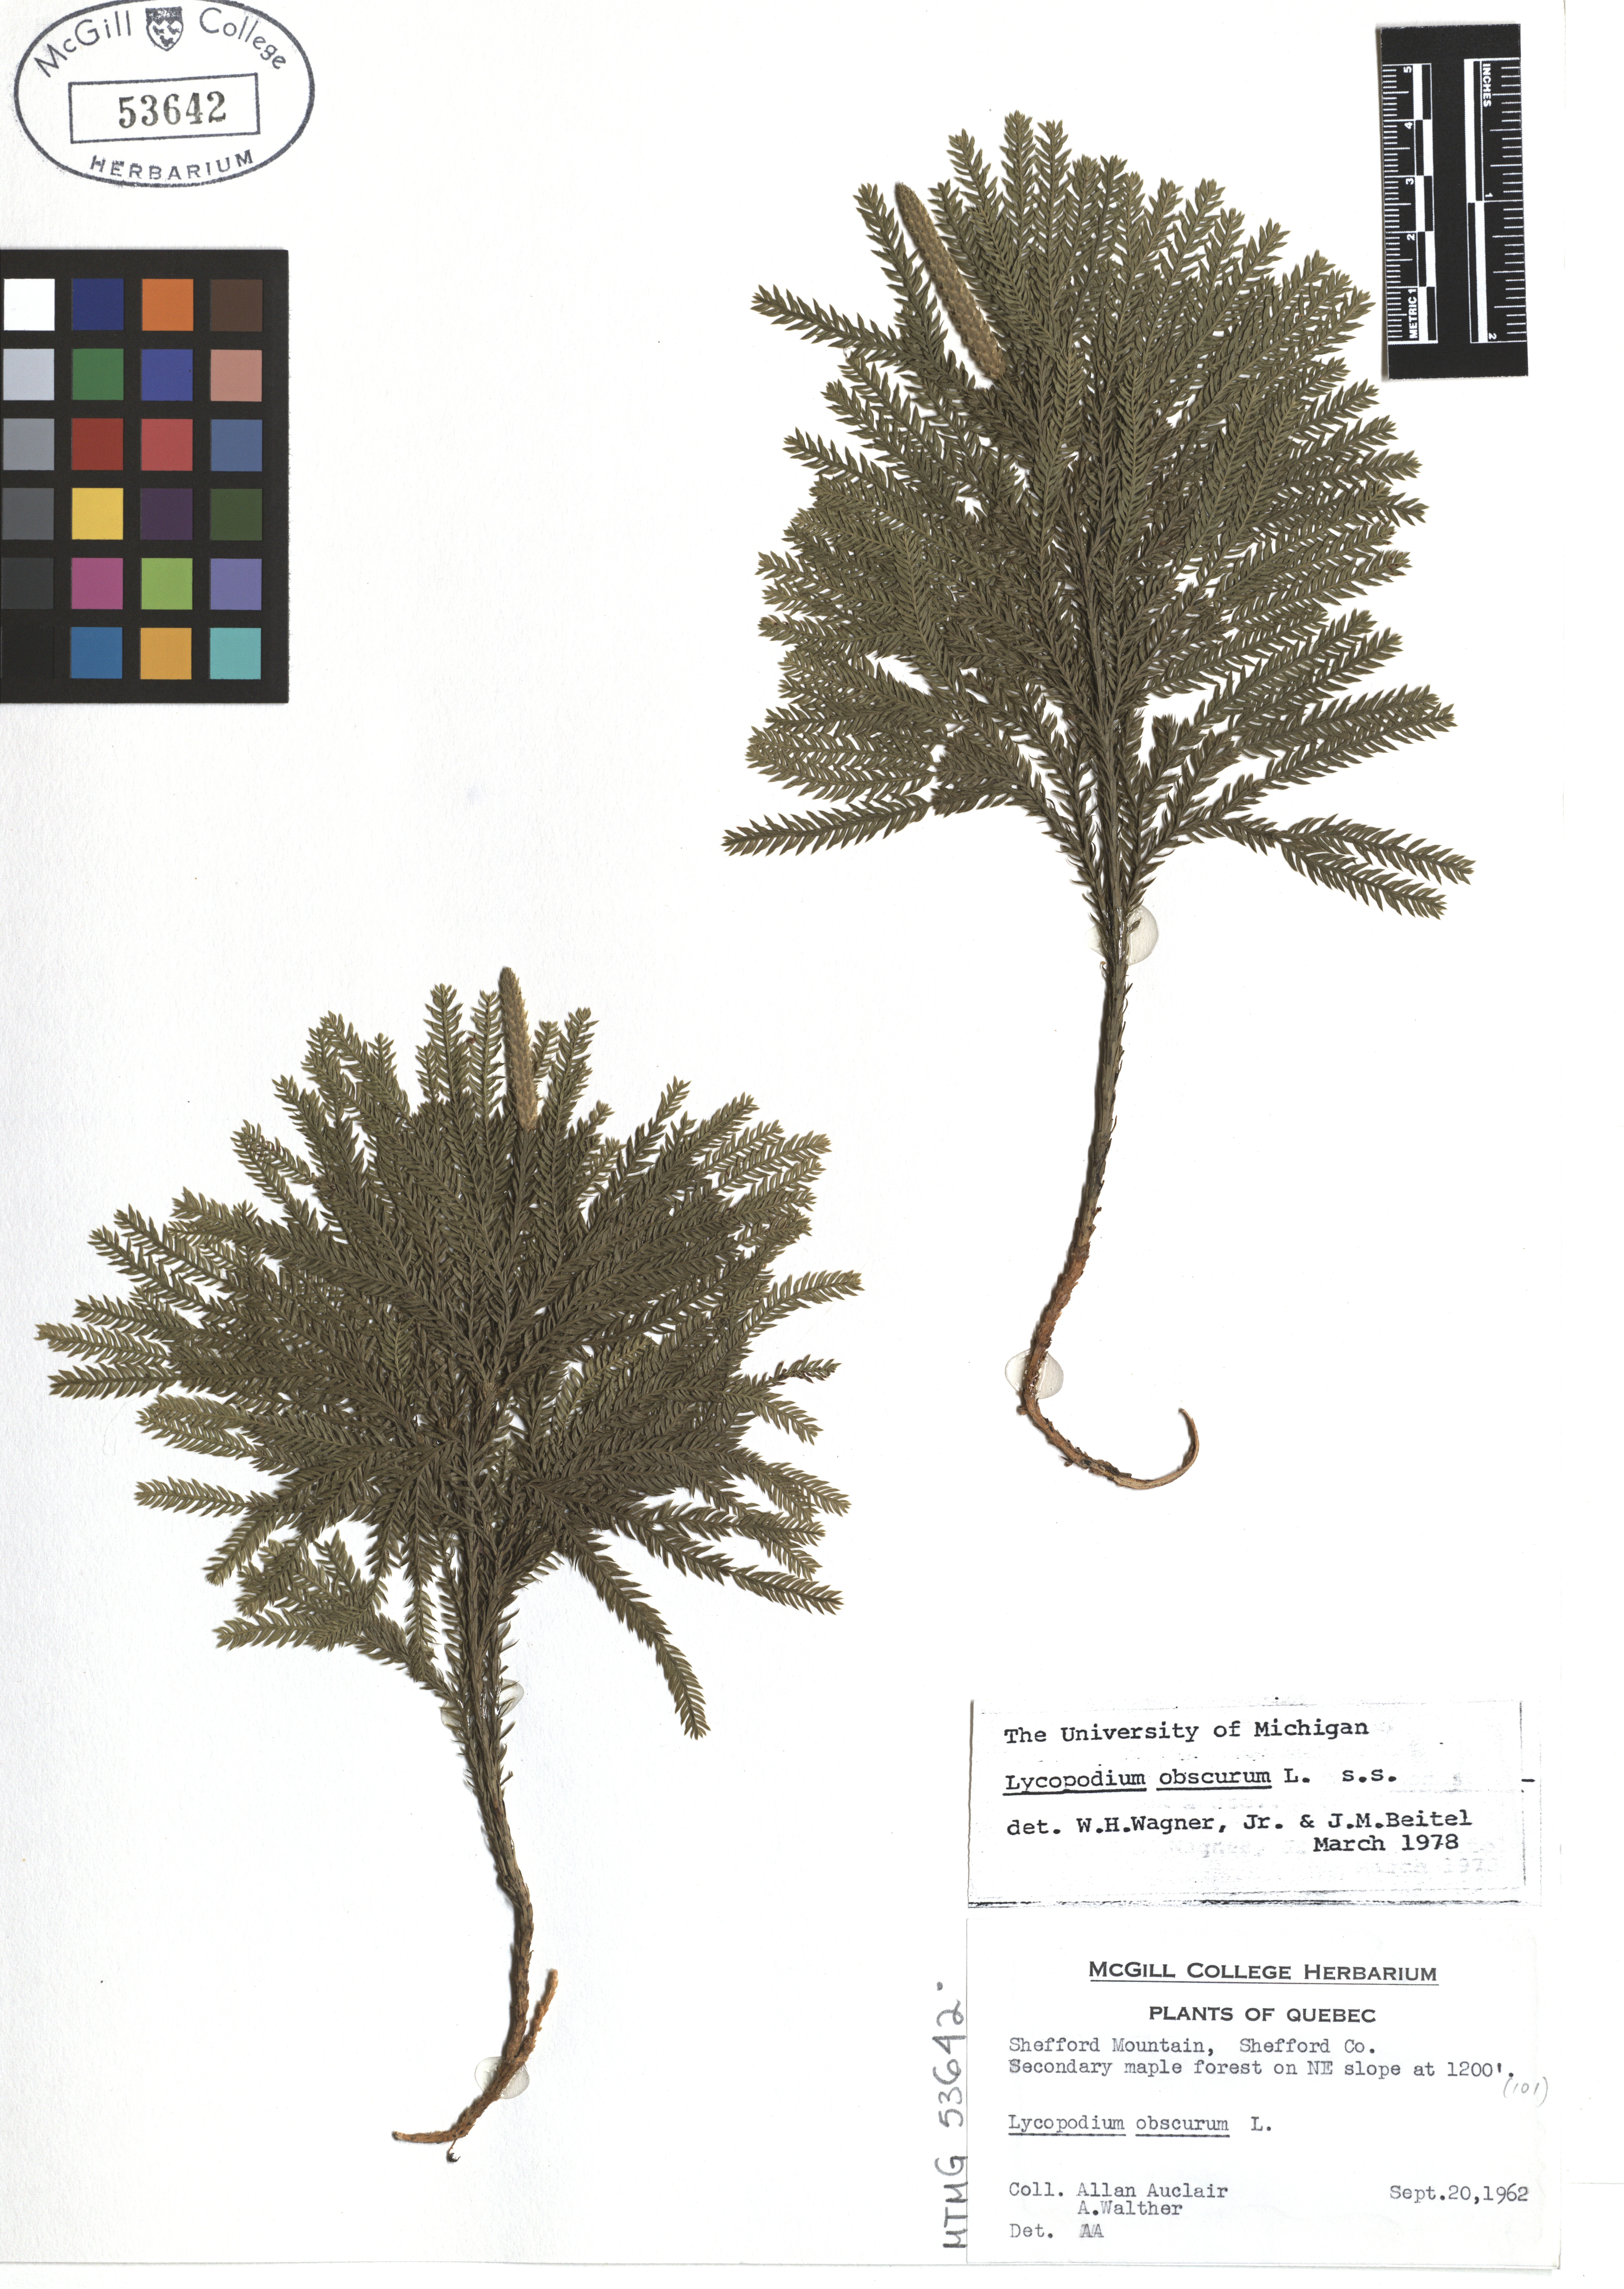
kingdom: Plantae
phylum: Tracheophyta
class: Lycopodiopsida
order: Lycopodiales
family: Lycopodiaceae
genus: Dendrolycopodium
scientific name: Dendrolycopodium obscurum
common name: Common ground-pine
